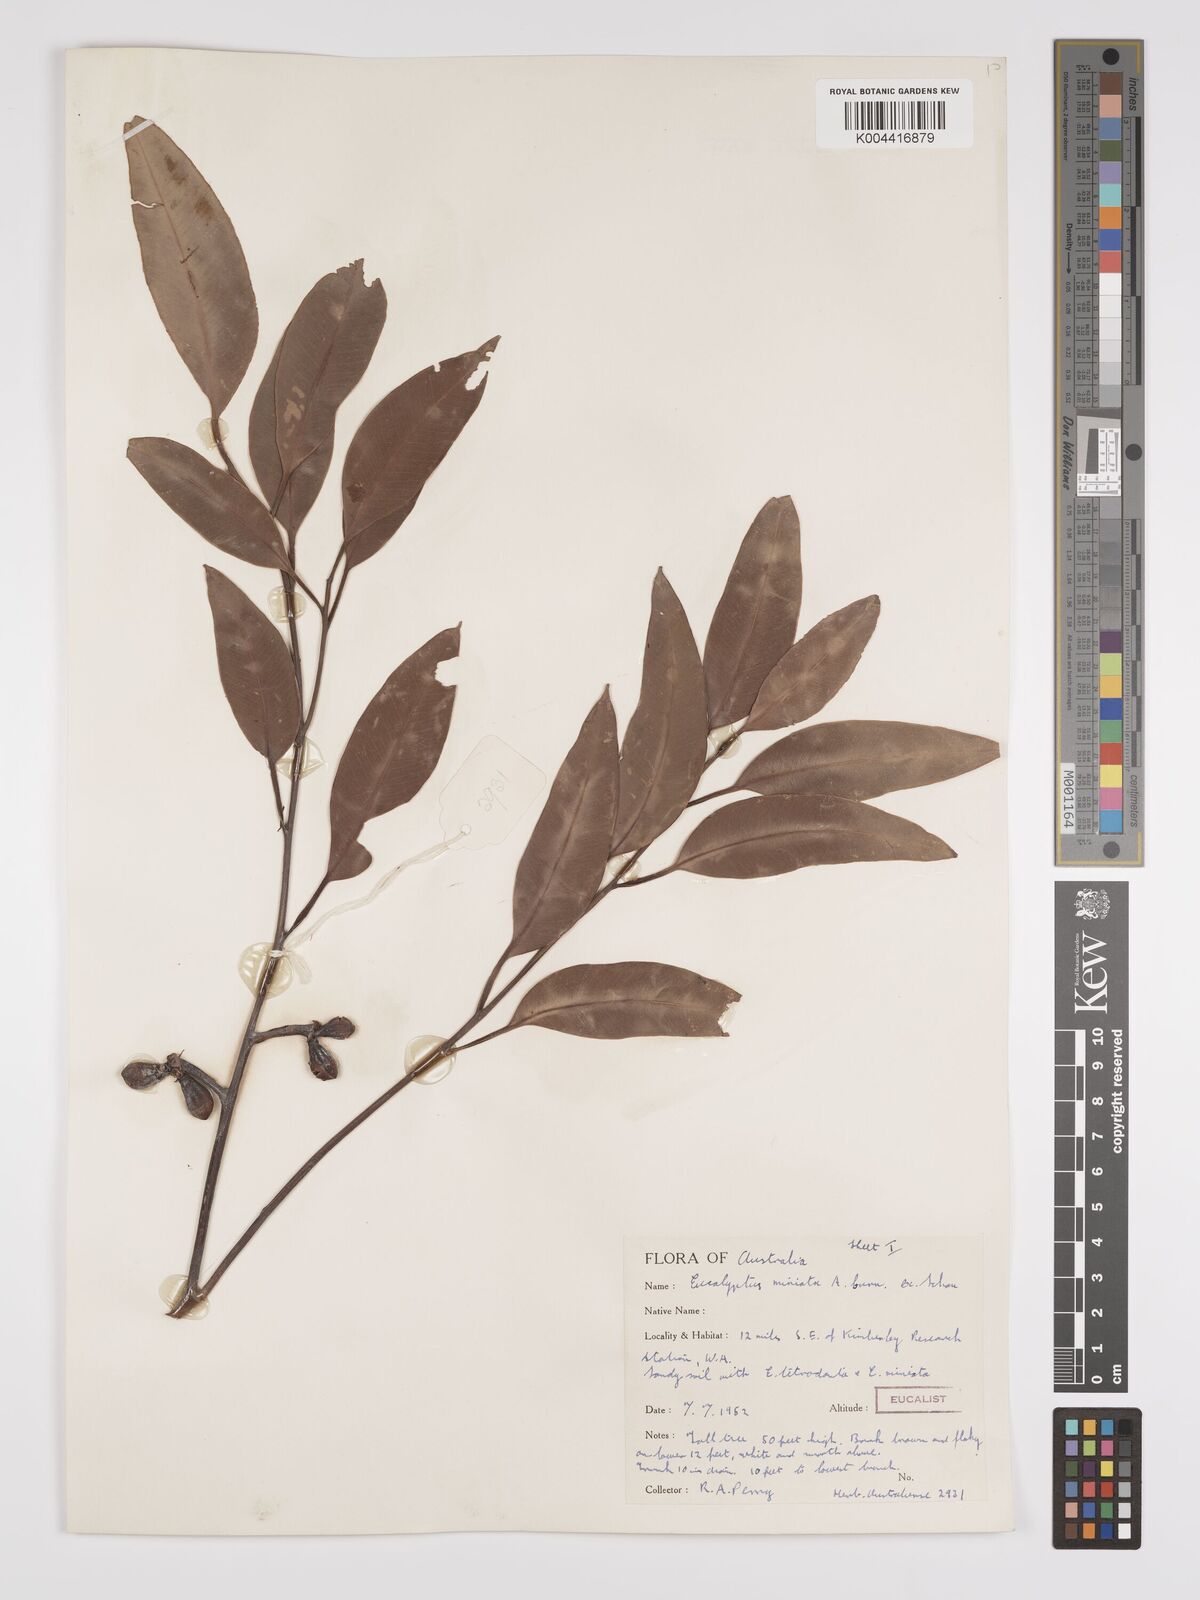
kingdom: Plantae
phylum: Tracheophyta
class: Magnoliopsida
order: Myrtales
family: Myrtaceae
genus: Eucalyptus
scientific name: Eucalyptus miniata
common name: Darwin-woollybutt
